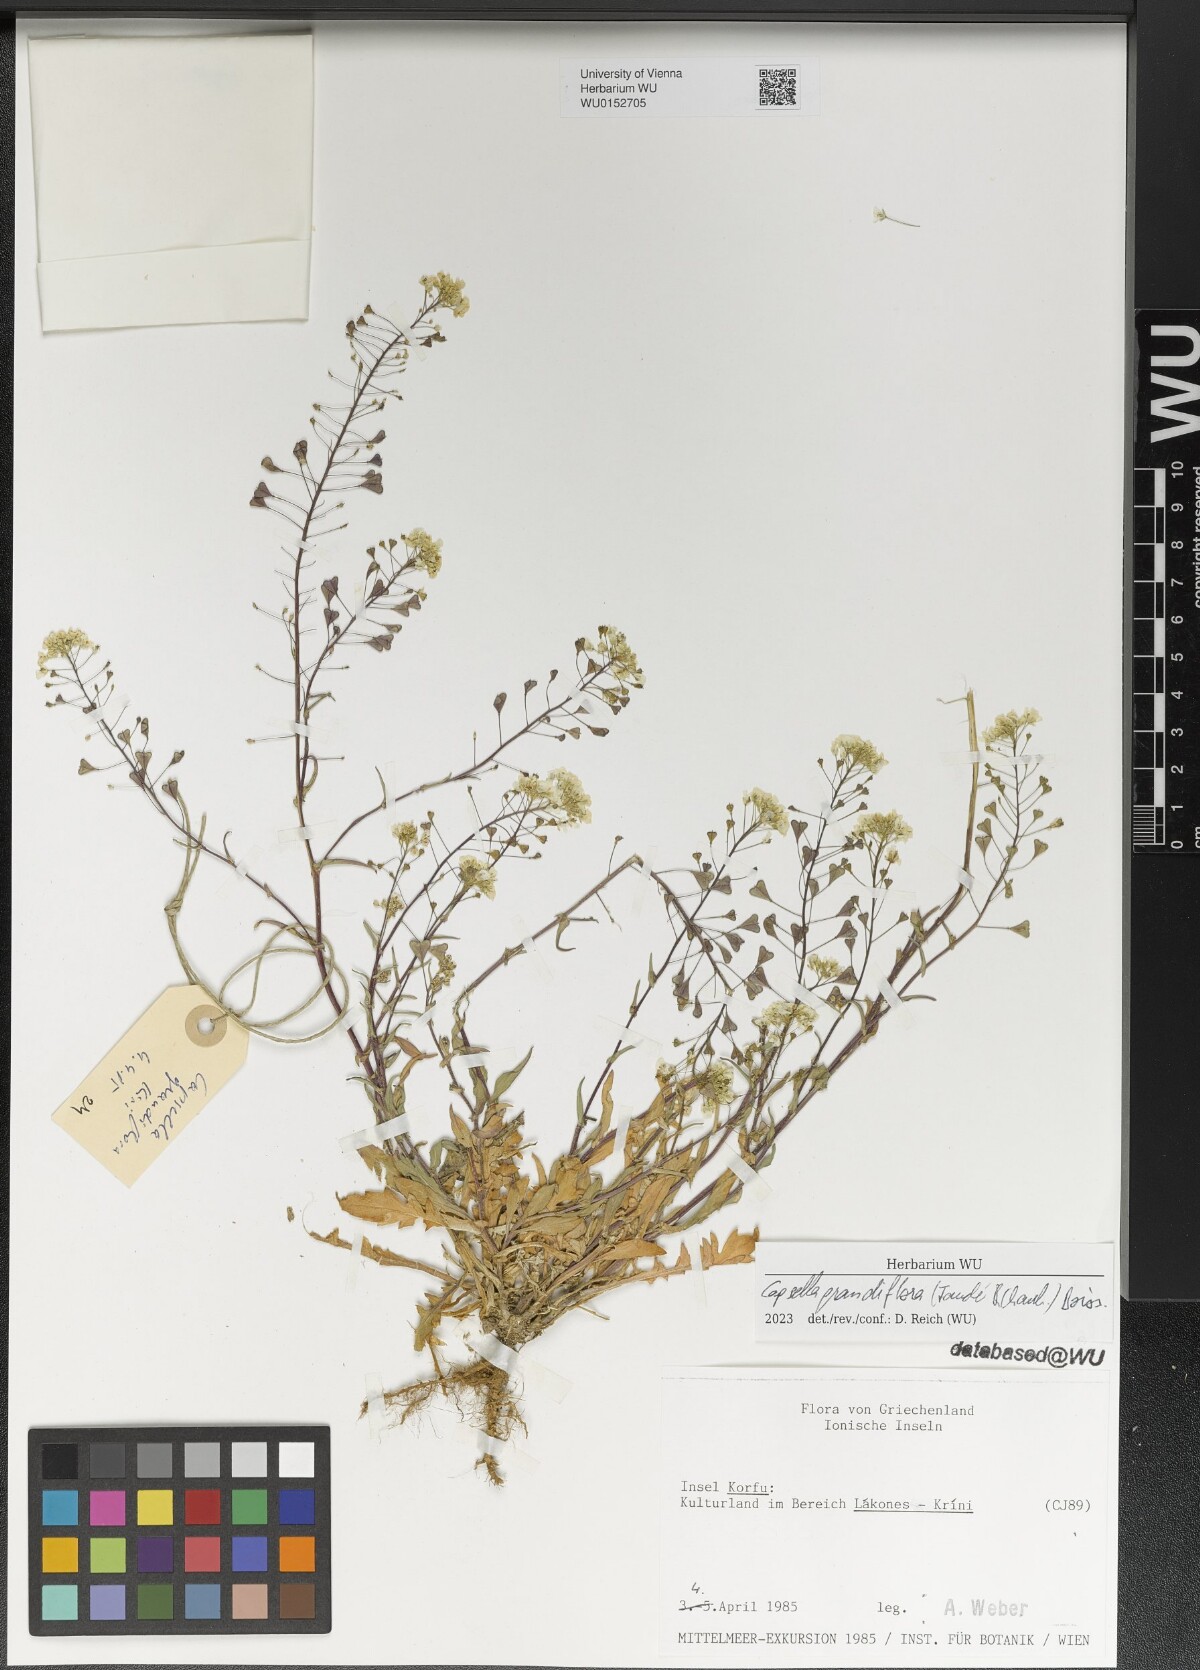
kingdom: Plantae
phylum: Tracheophyta
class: Magnoliopsida
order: Brassicales
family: Brassicaceae
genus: Capsella
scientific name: Capsella grandiflora
